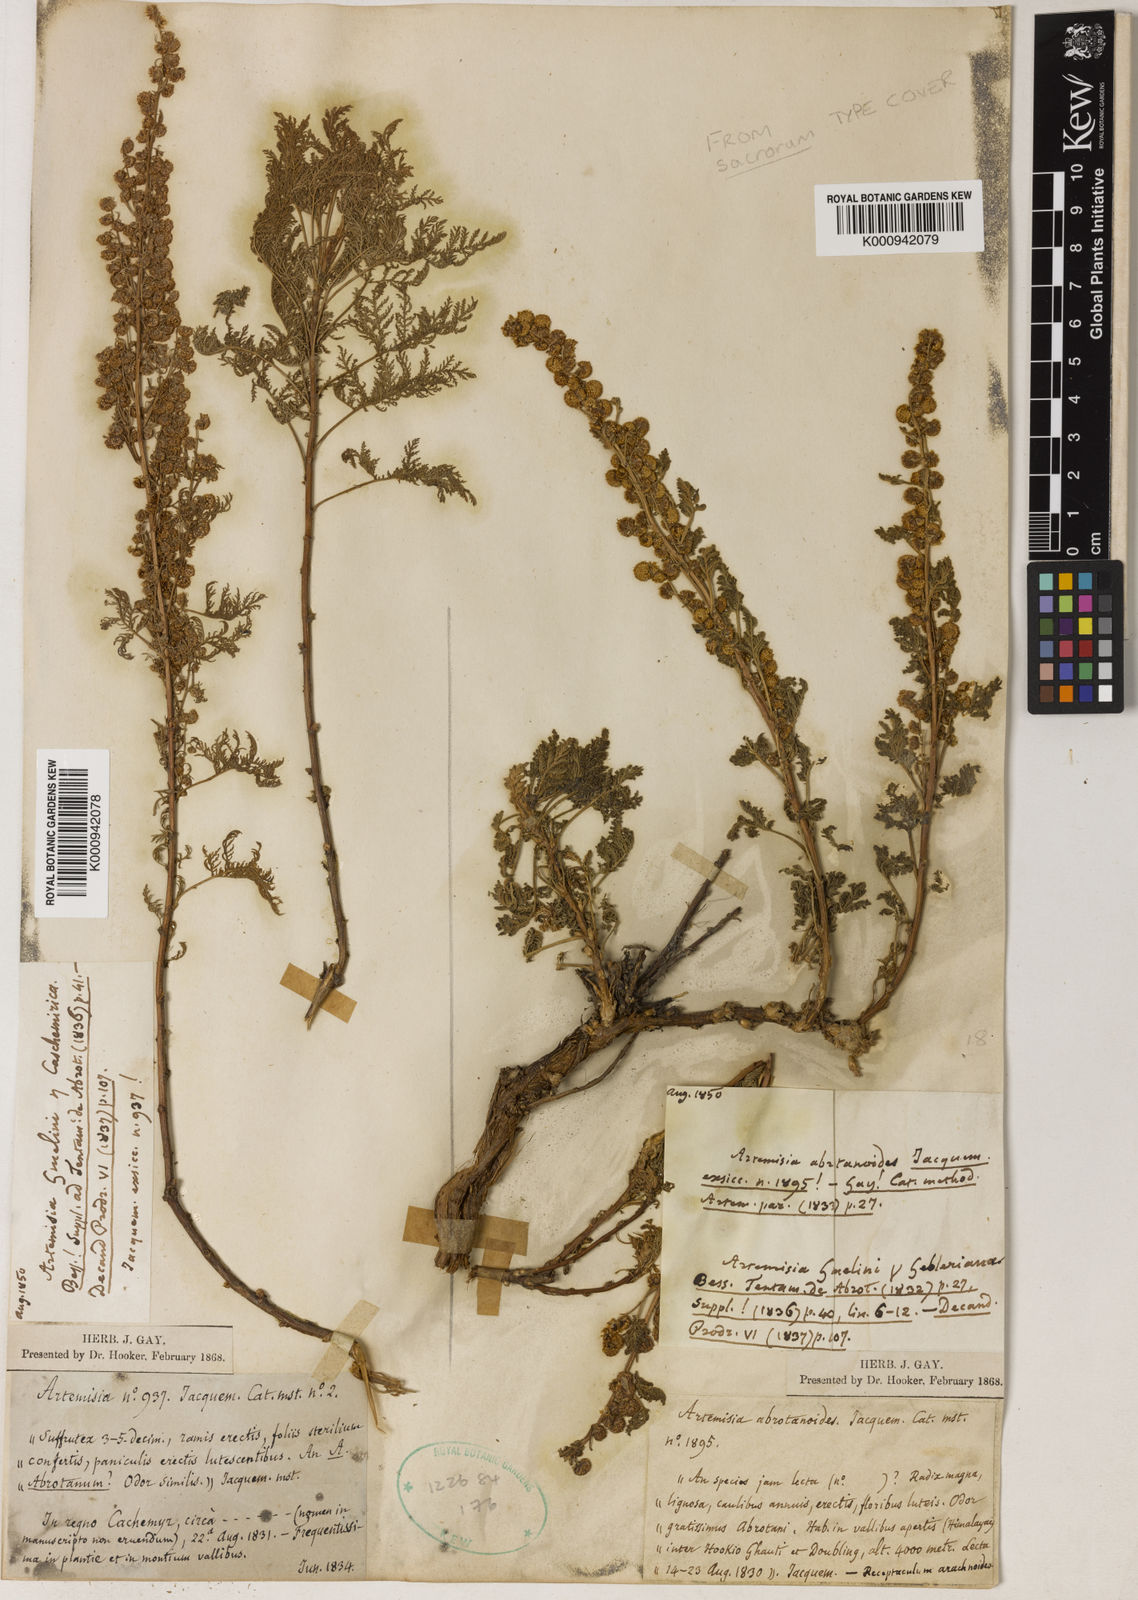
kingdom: Plantae
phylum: Tracheophyta
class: Magnoliopsida
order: Asterales
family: Asteraceae
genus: Artemisia
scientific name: Artemisia gmelinii
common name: Gmelin's wormwood
